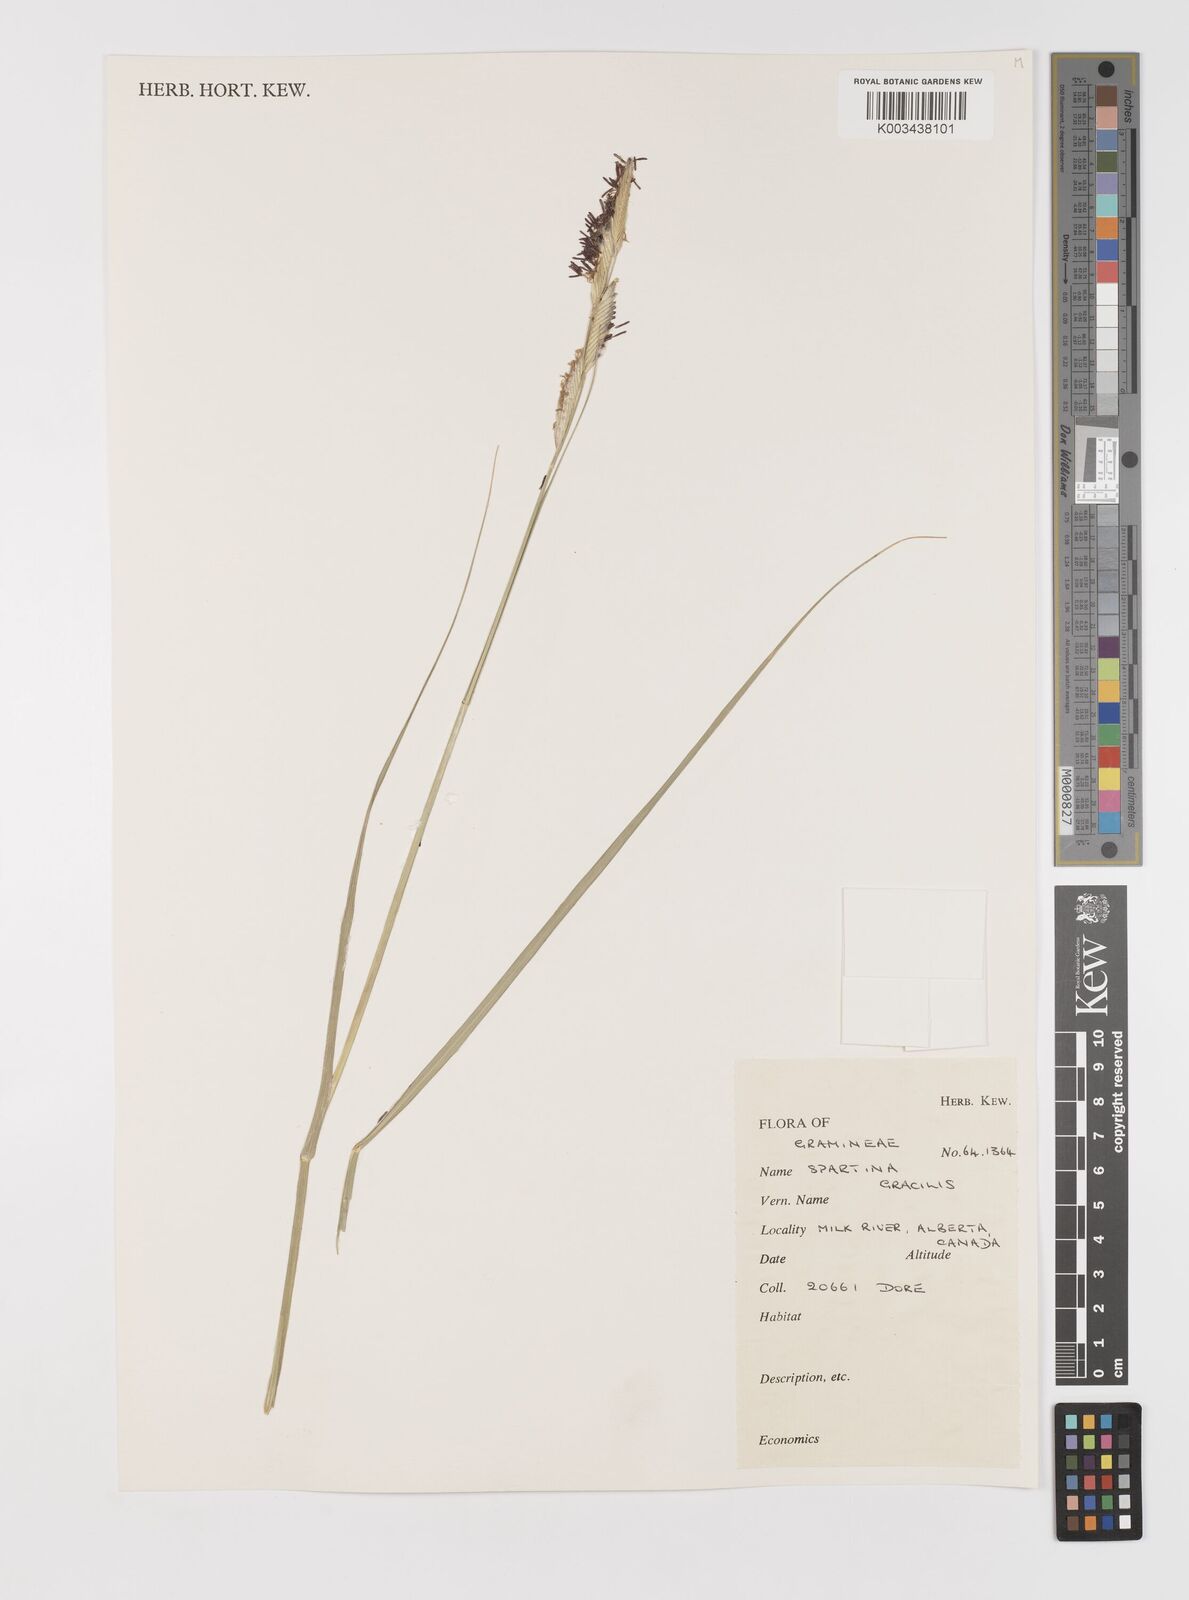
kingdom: Plantae
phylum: Tracheophyta
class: Liliopsida
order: Poales
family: Poaceae
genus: Sporobolus
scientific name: Sporobolus hookerianus
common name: Alkali cordgrass
